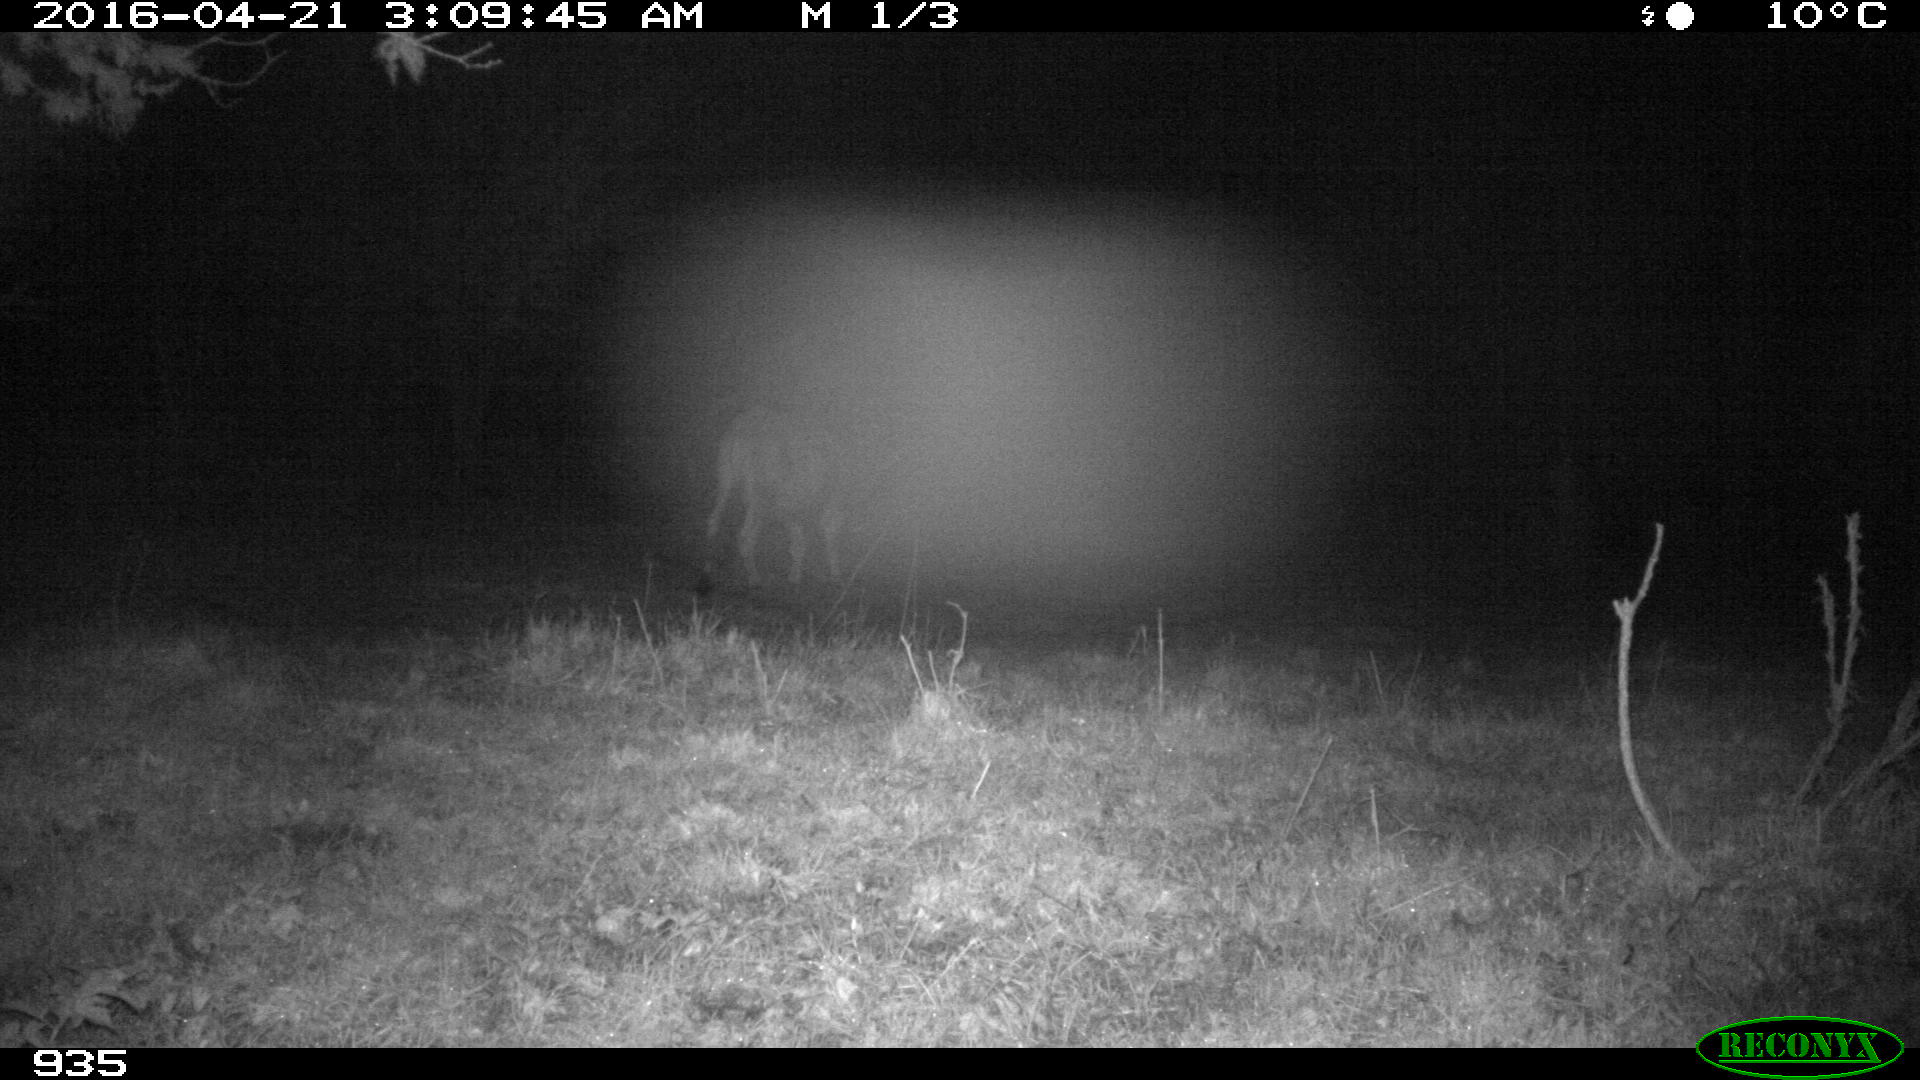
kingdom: Animalia
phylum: Chordata
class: Mammalia
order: Artiodactyla
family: Bovidae
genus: Bos
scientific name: Bos taurus
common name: Domesticated cattle
